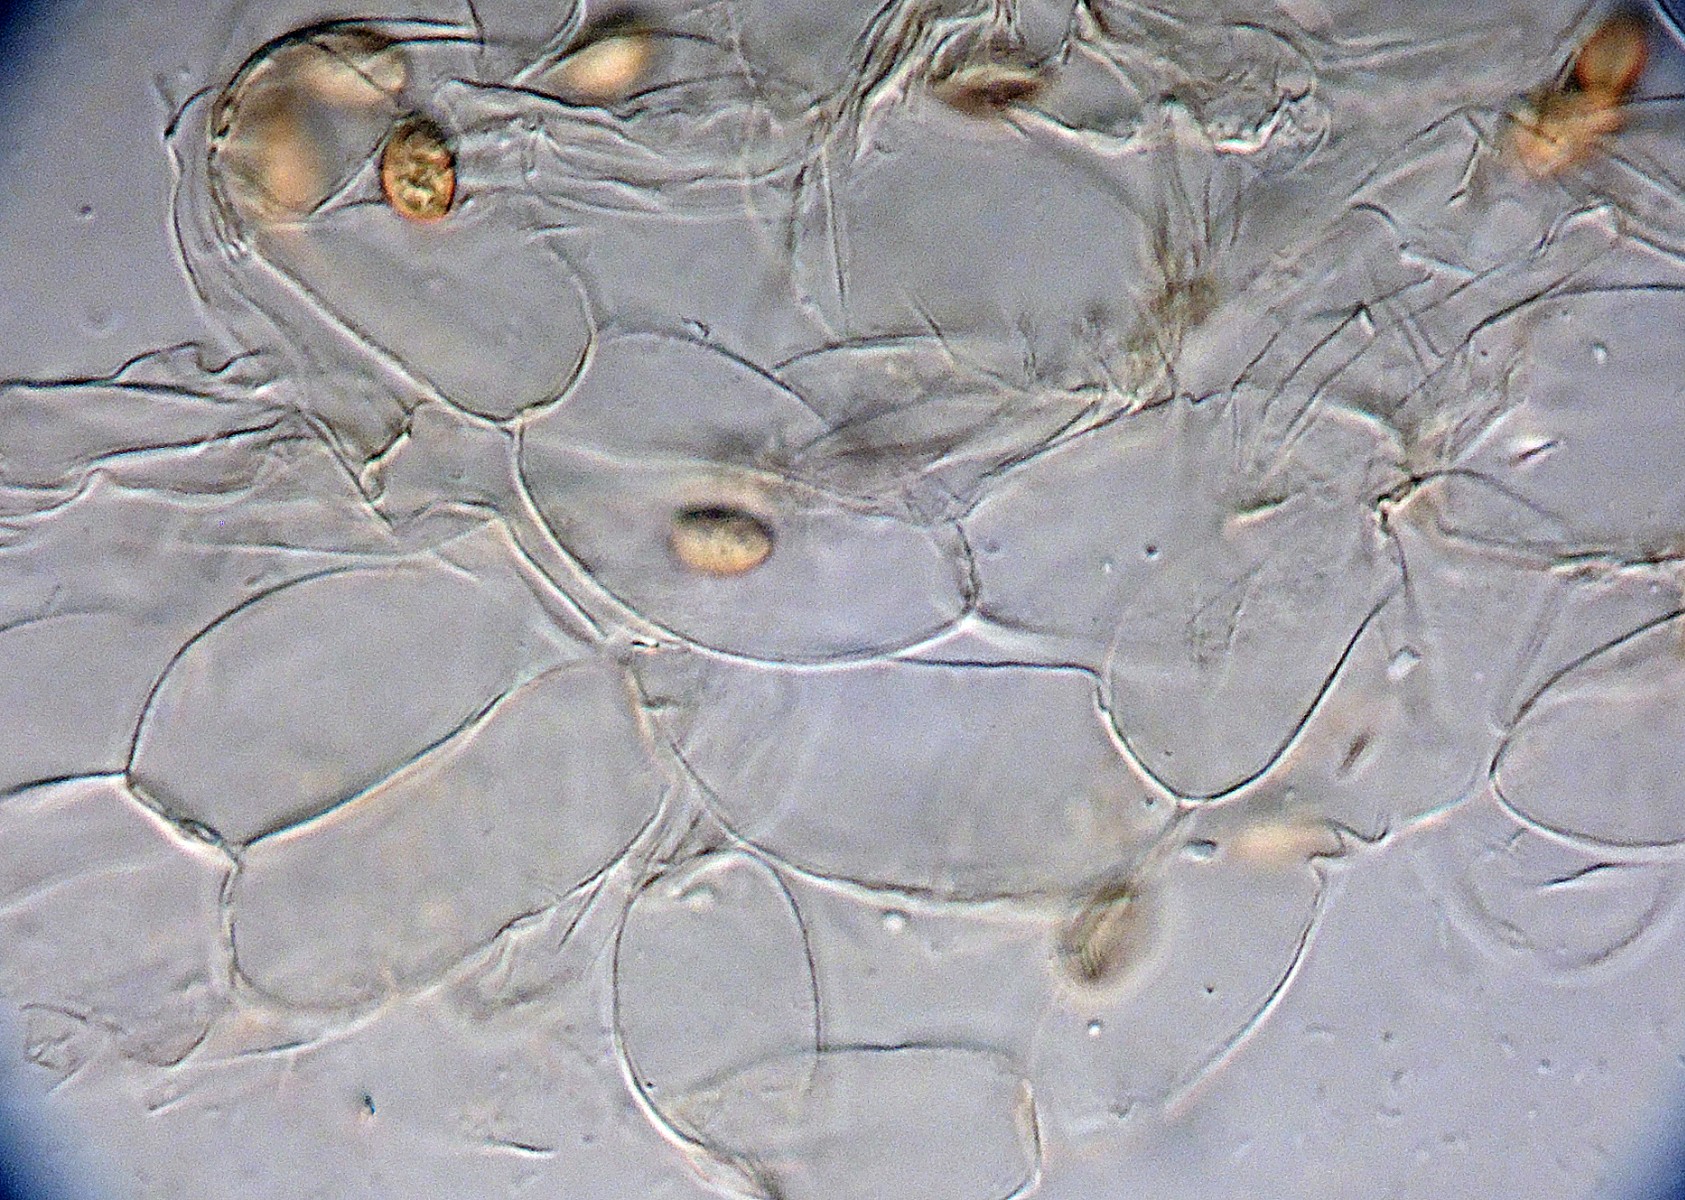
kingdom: Fungi
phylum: Basidiomycota
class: Agaricomycetes
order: Agaricales
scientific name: Agaricales
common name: champignonordenen
